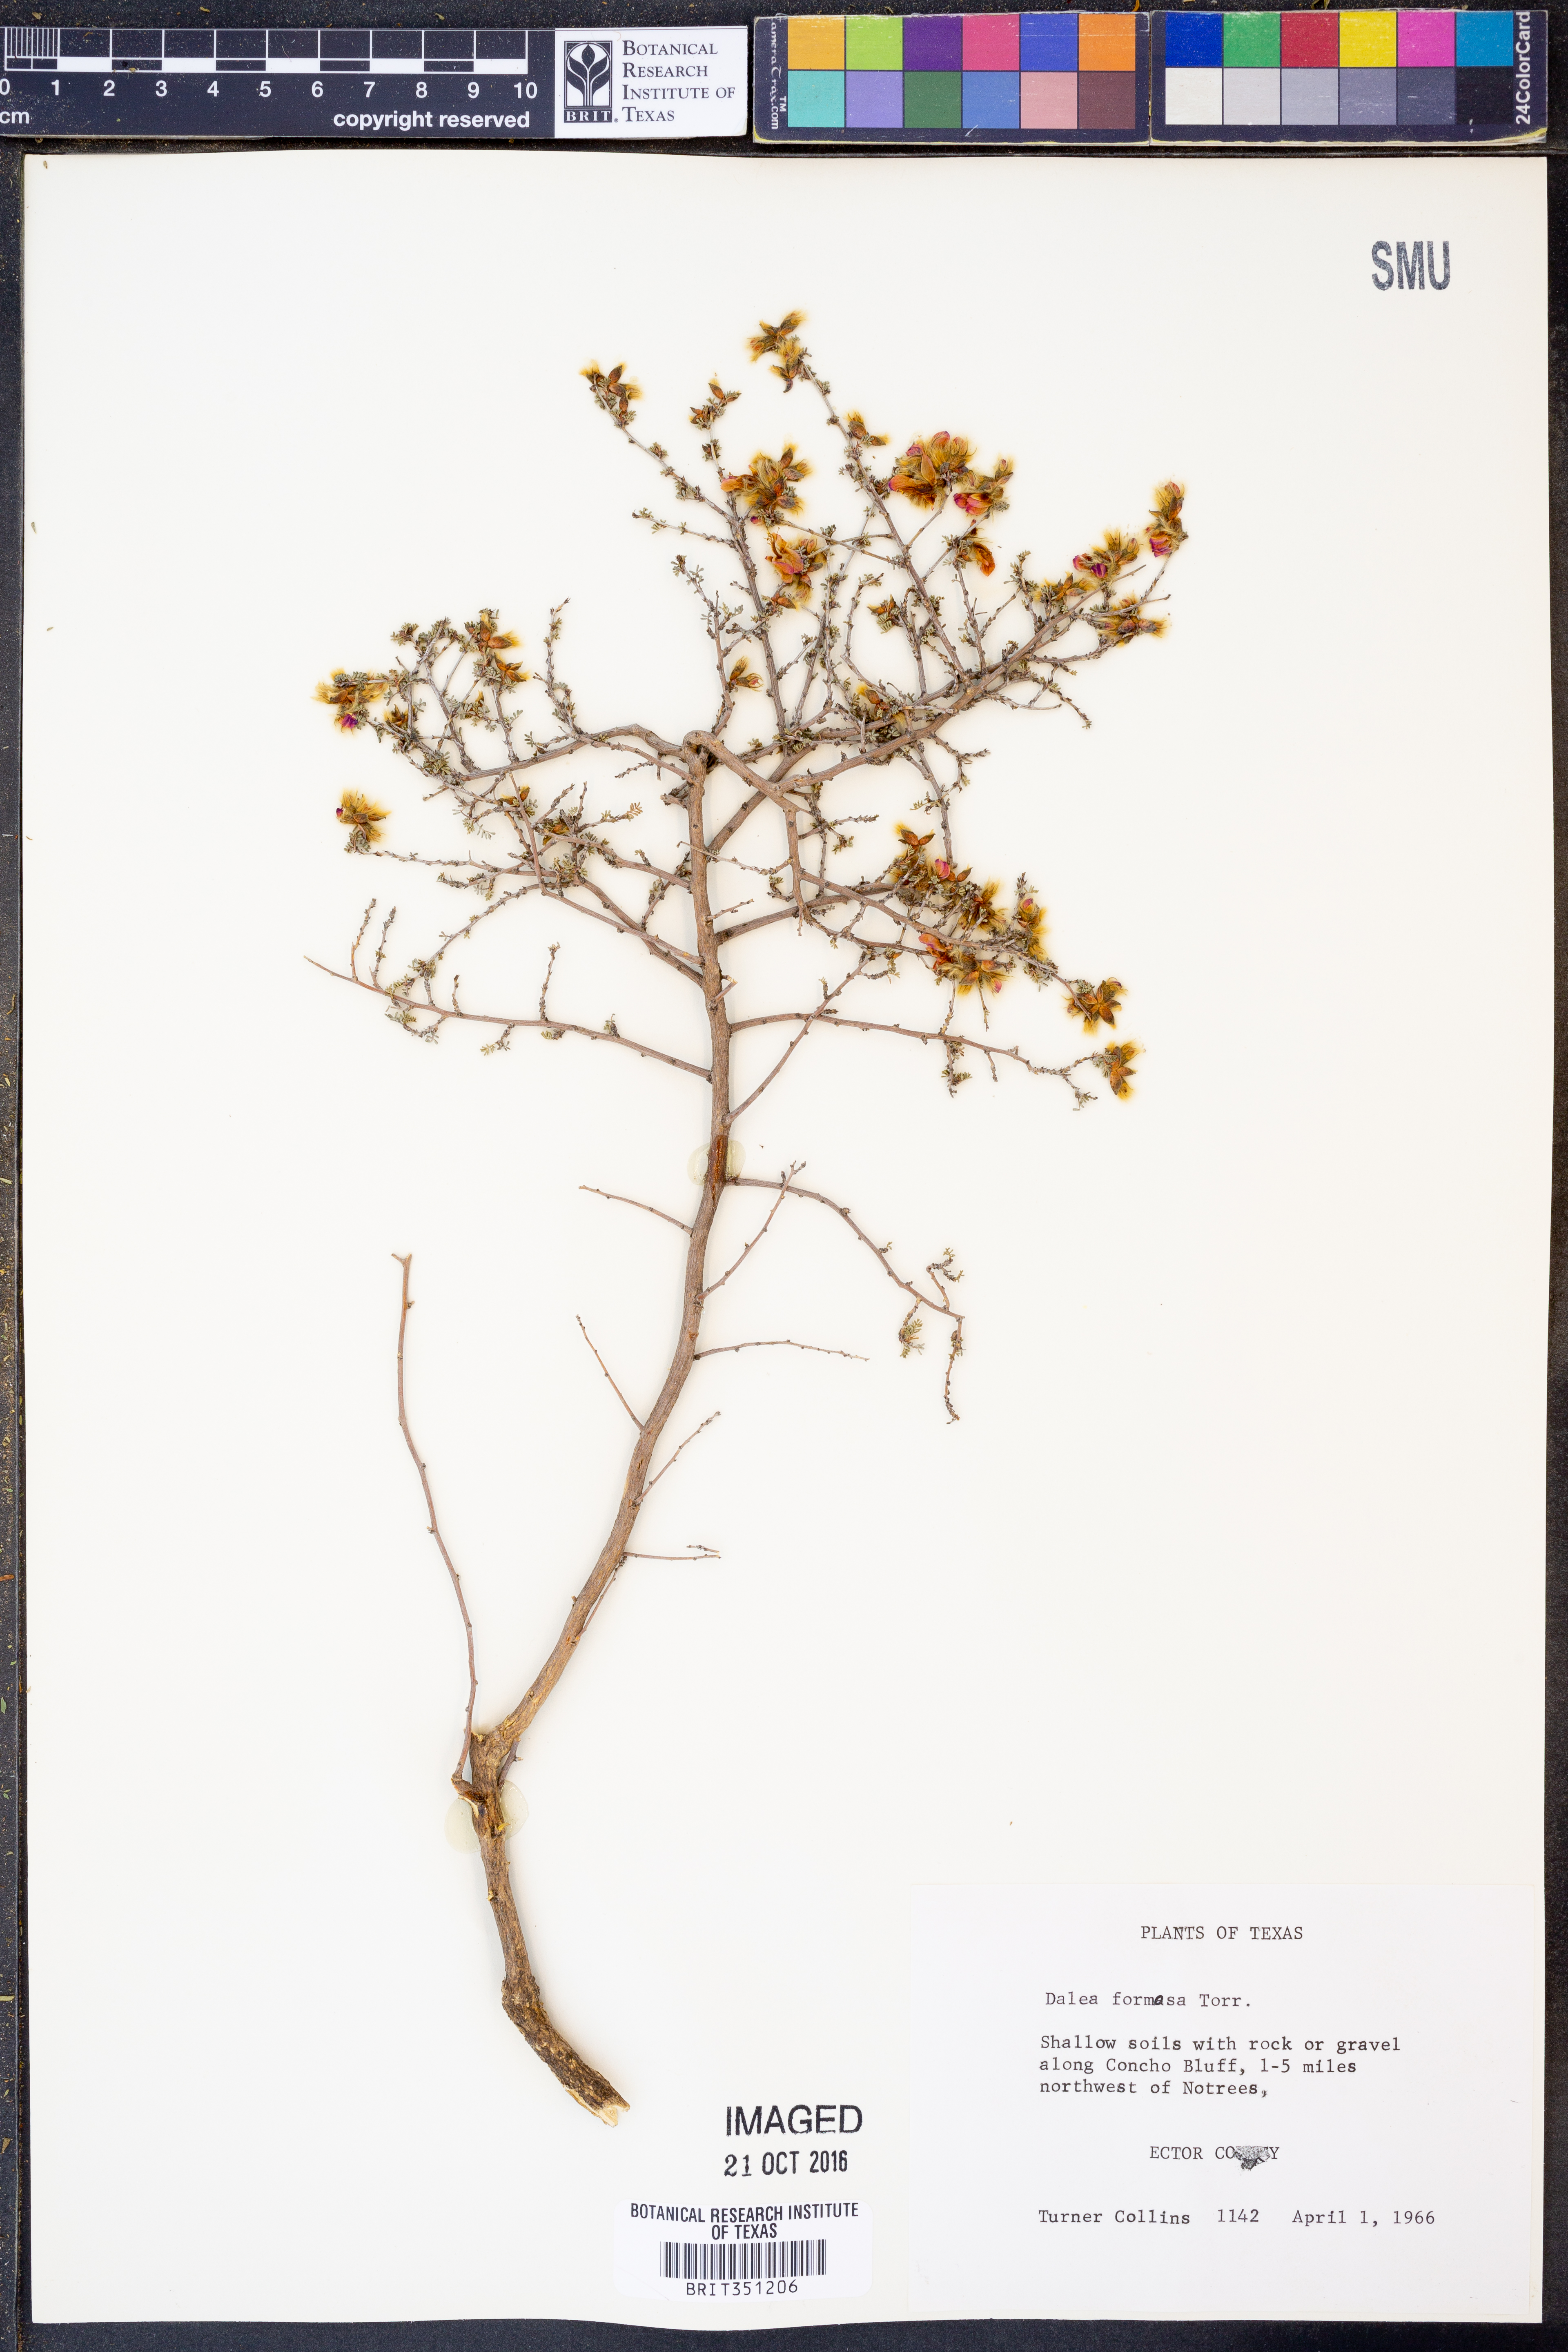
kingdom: Plantae
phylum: Tracheophyta
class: Magnoliopsida
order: Fabales
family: Fabaceae
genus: Dalea
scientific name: Dalea formosa
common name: Feather-plume dalea
